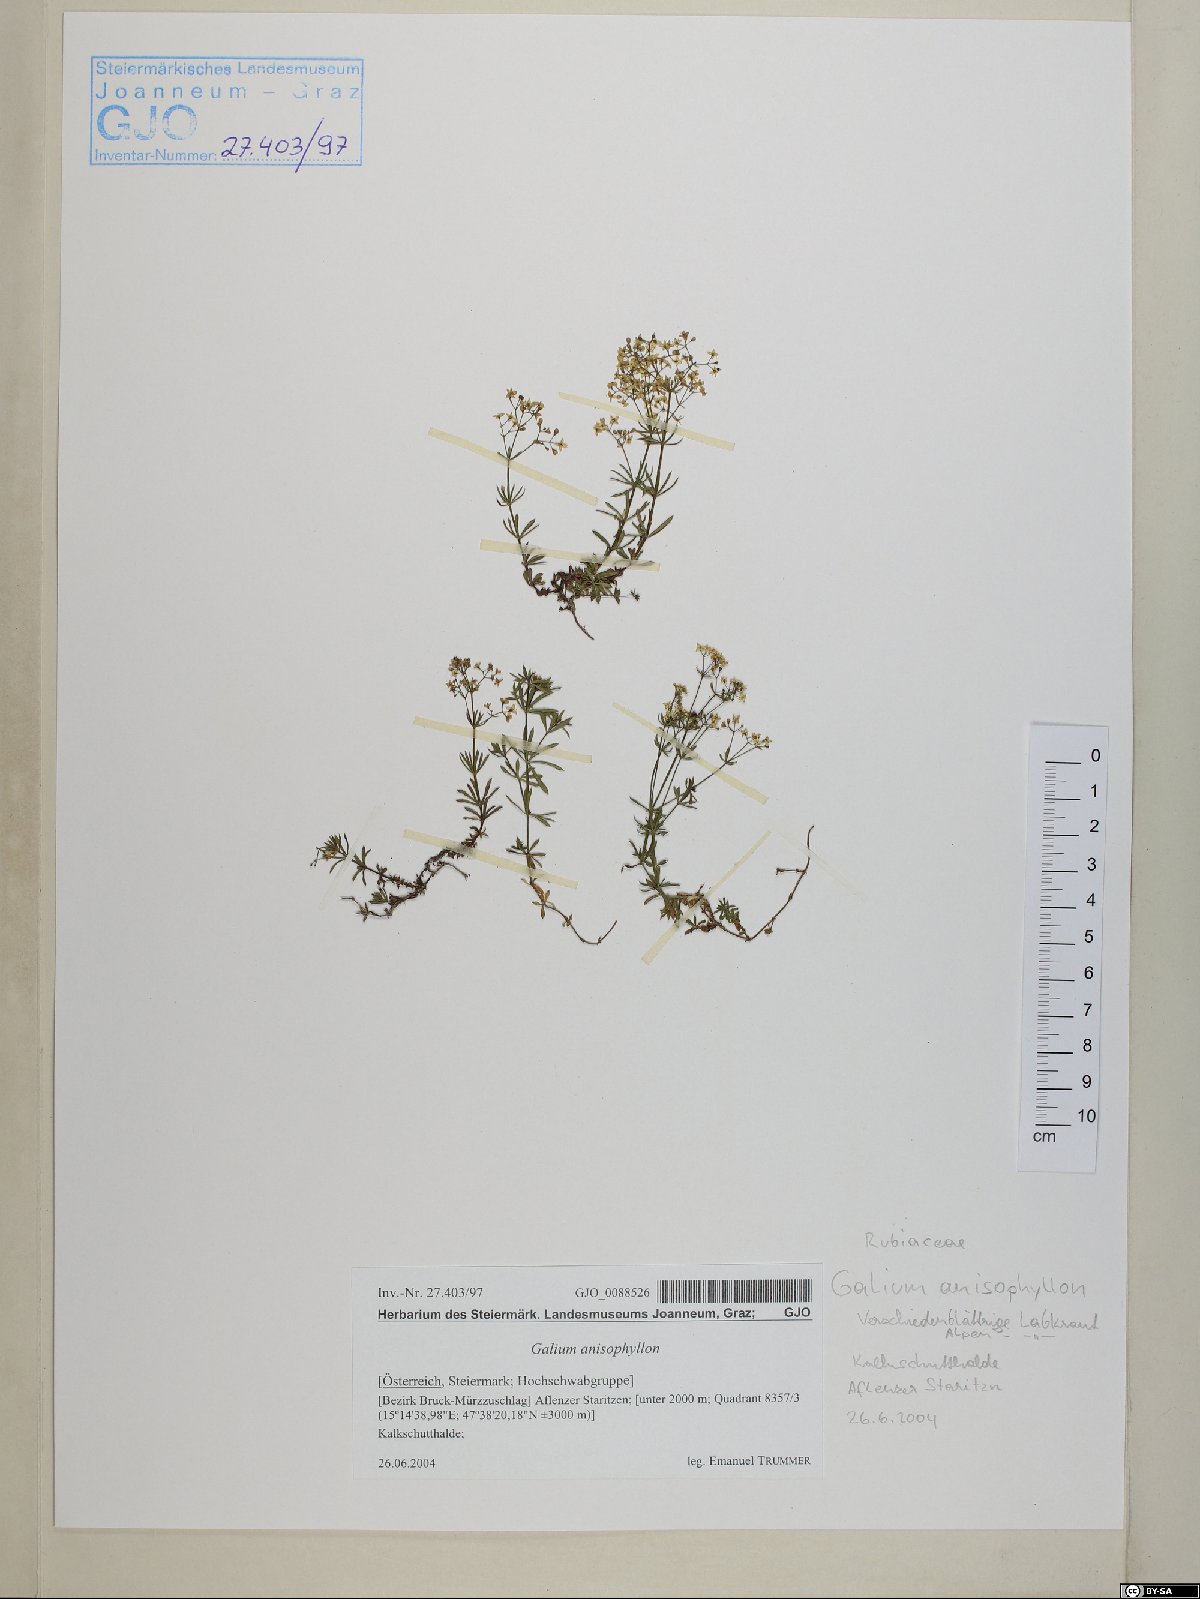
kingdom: Plantae
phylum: Tracheophyta
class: Magnoliopsida
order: Gentianales
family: Rubiaceae
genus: Galium
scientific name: Galium anisophyllon
